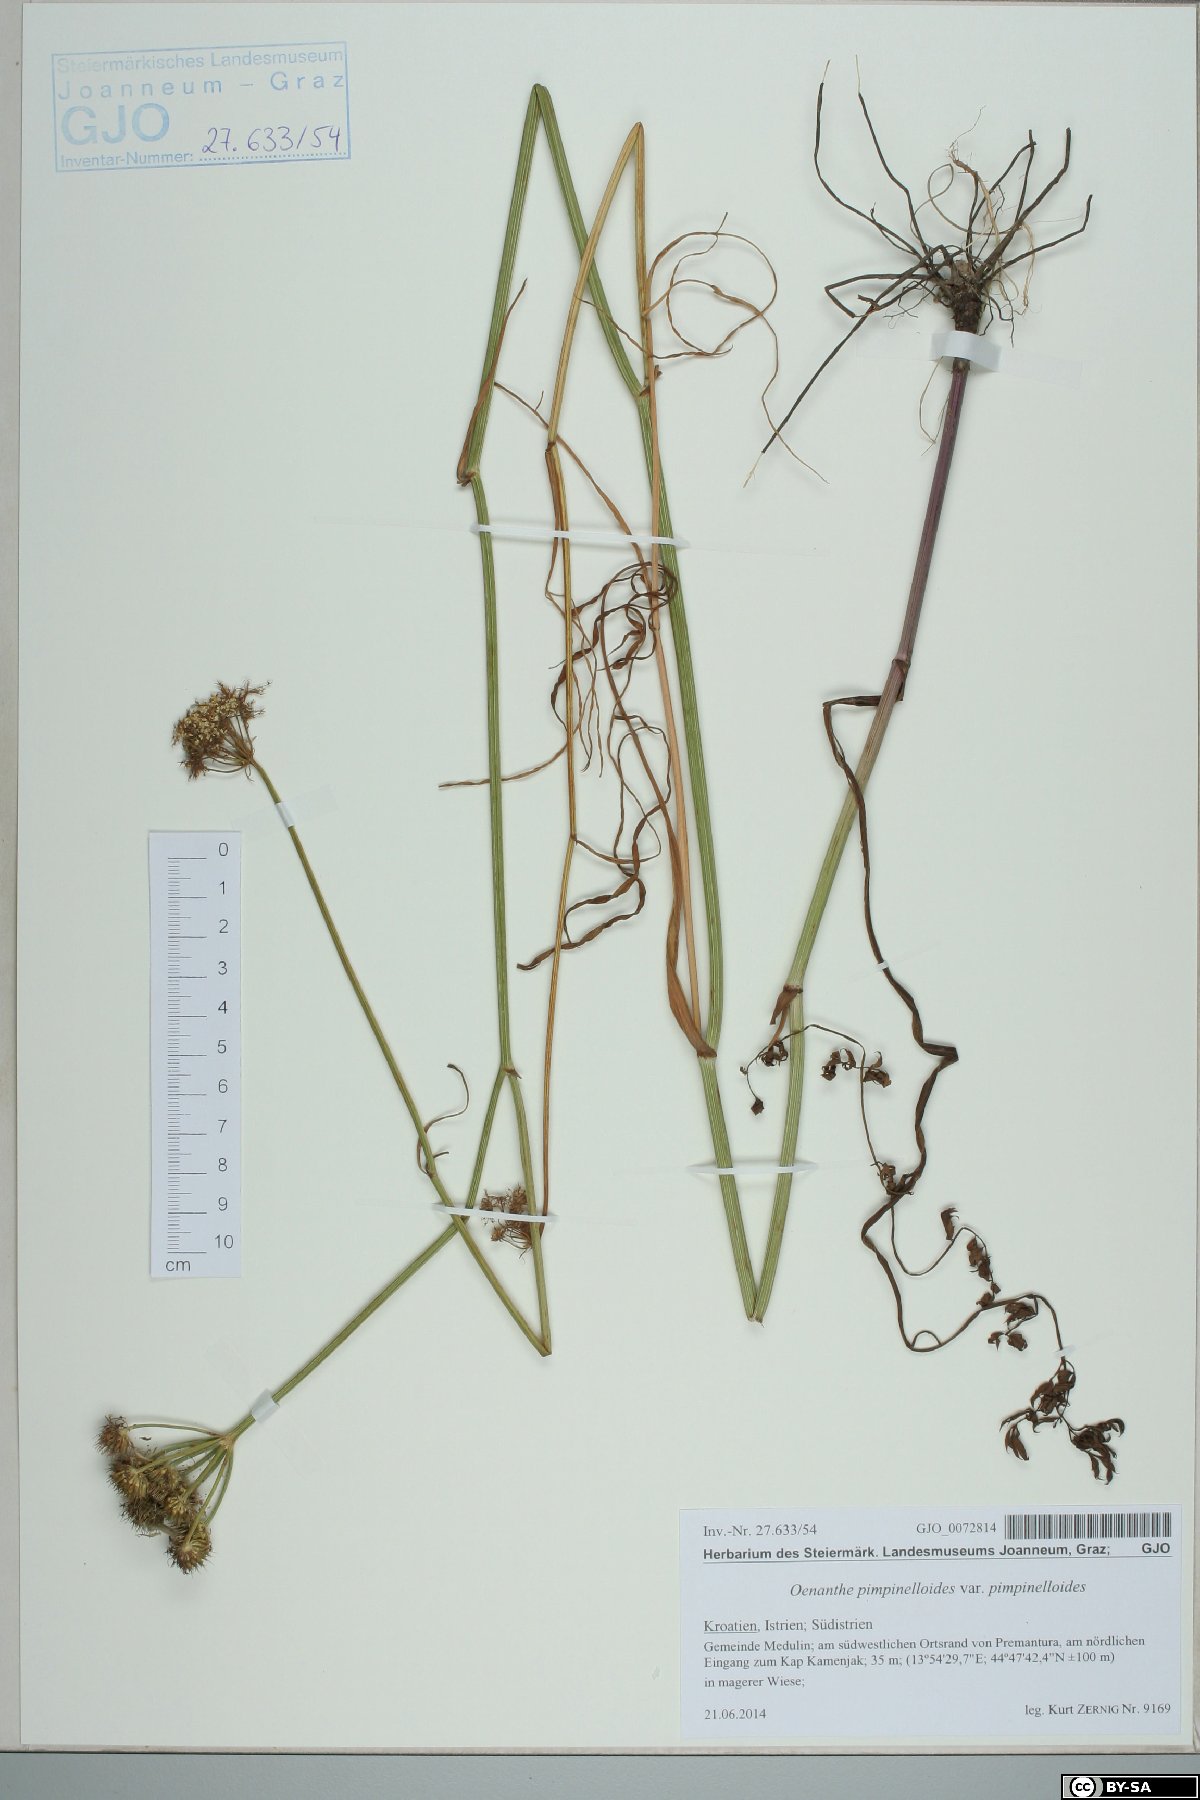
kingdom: Plantae
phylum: Tracheophyta
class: Magnoliopsida
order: Apiales
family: Apiaceae
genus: Oenanthe
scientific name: Oenanthe pimpinelloides
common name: Corky-fruited water-dropwort
